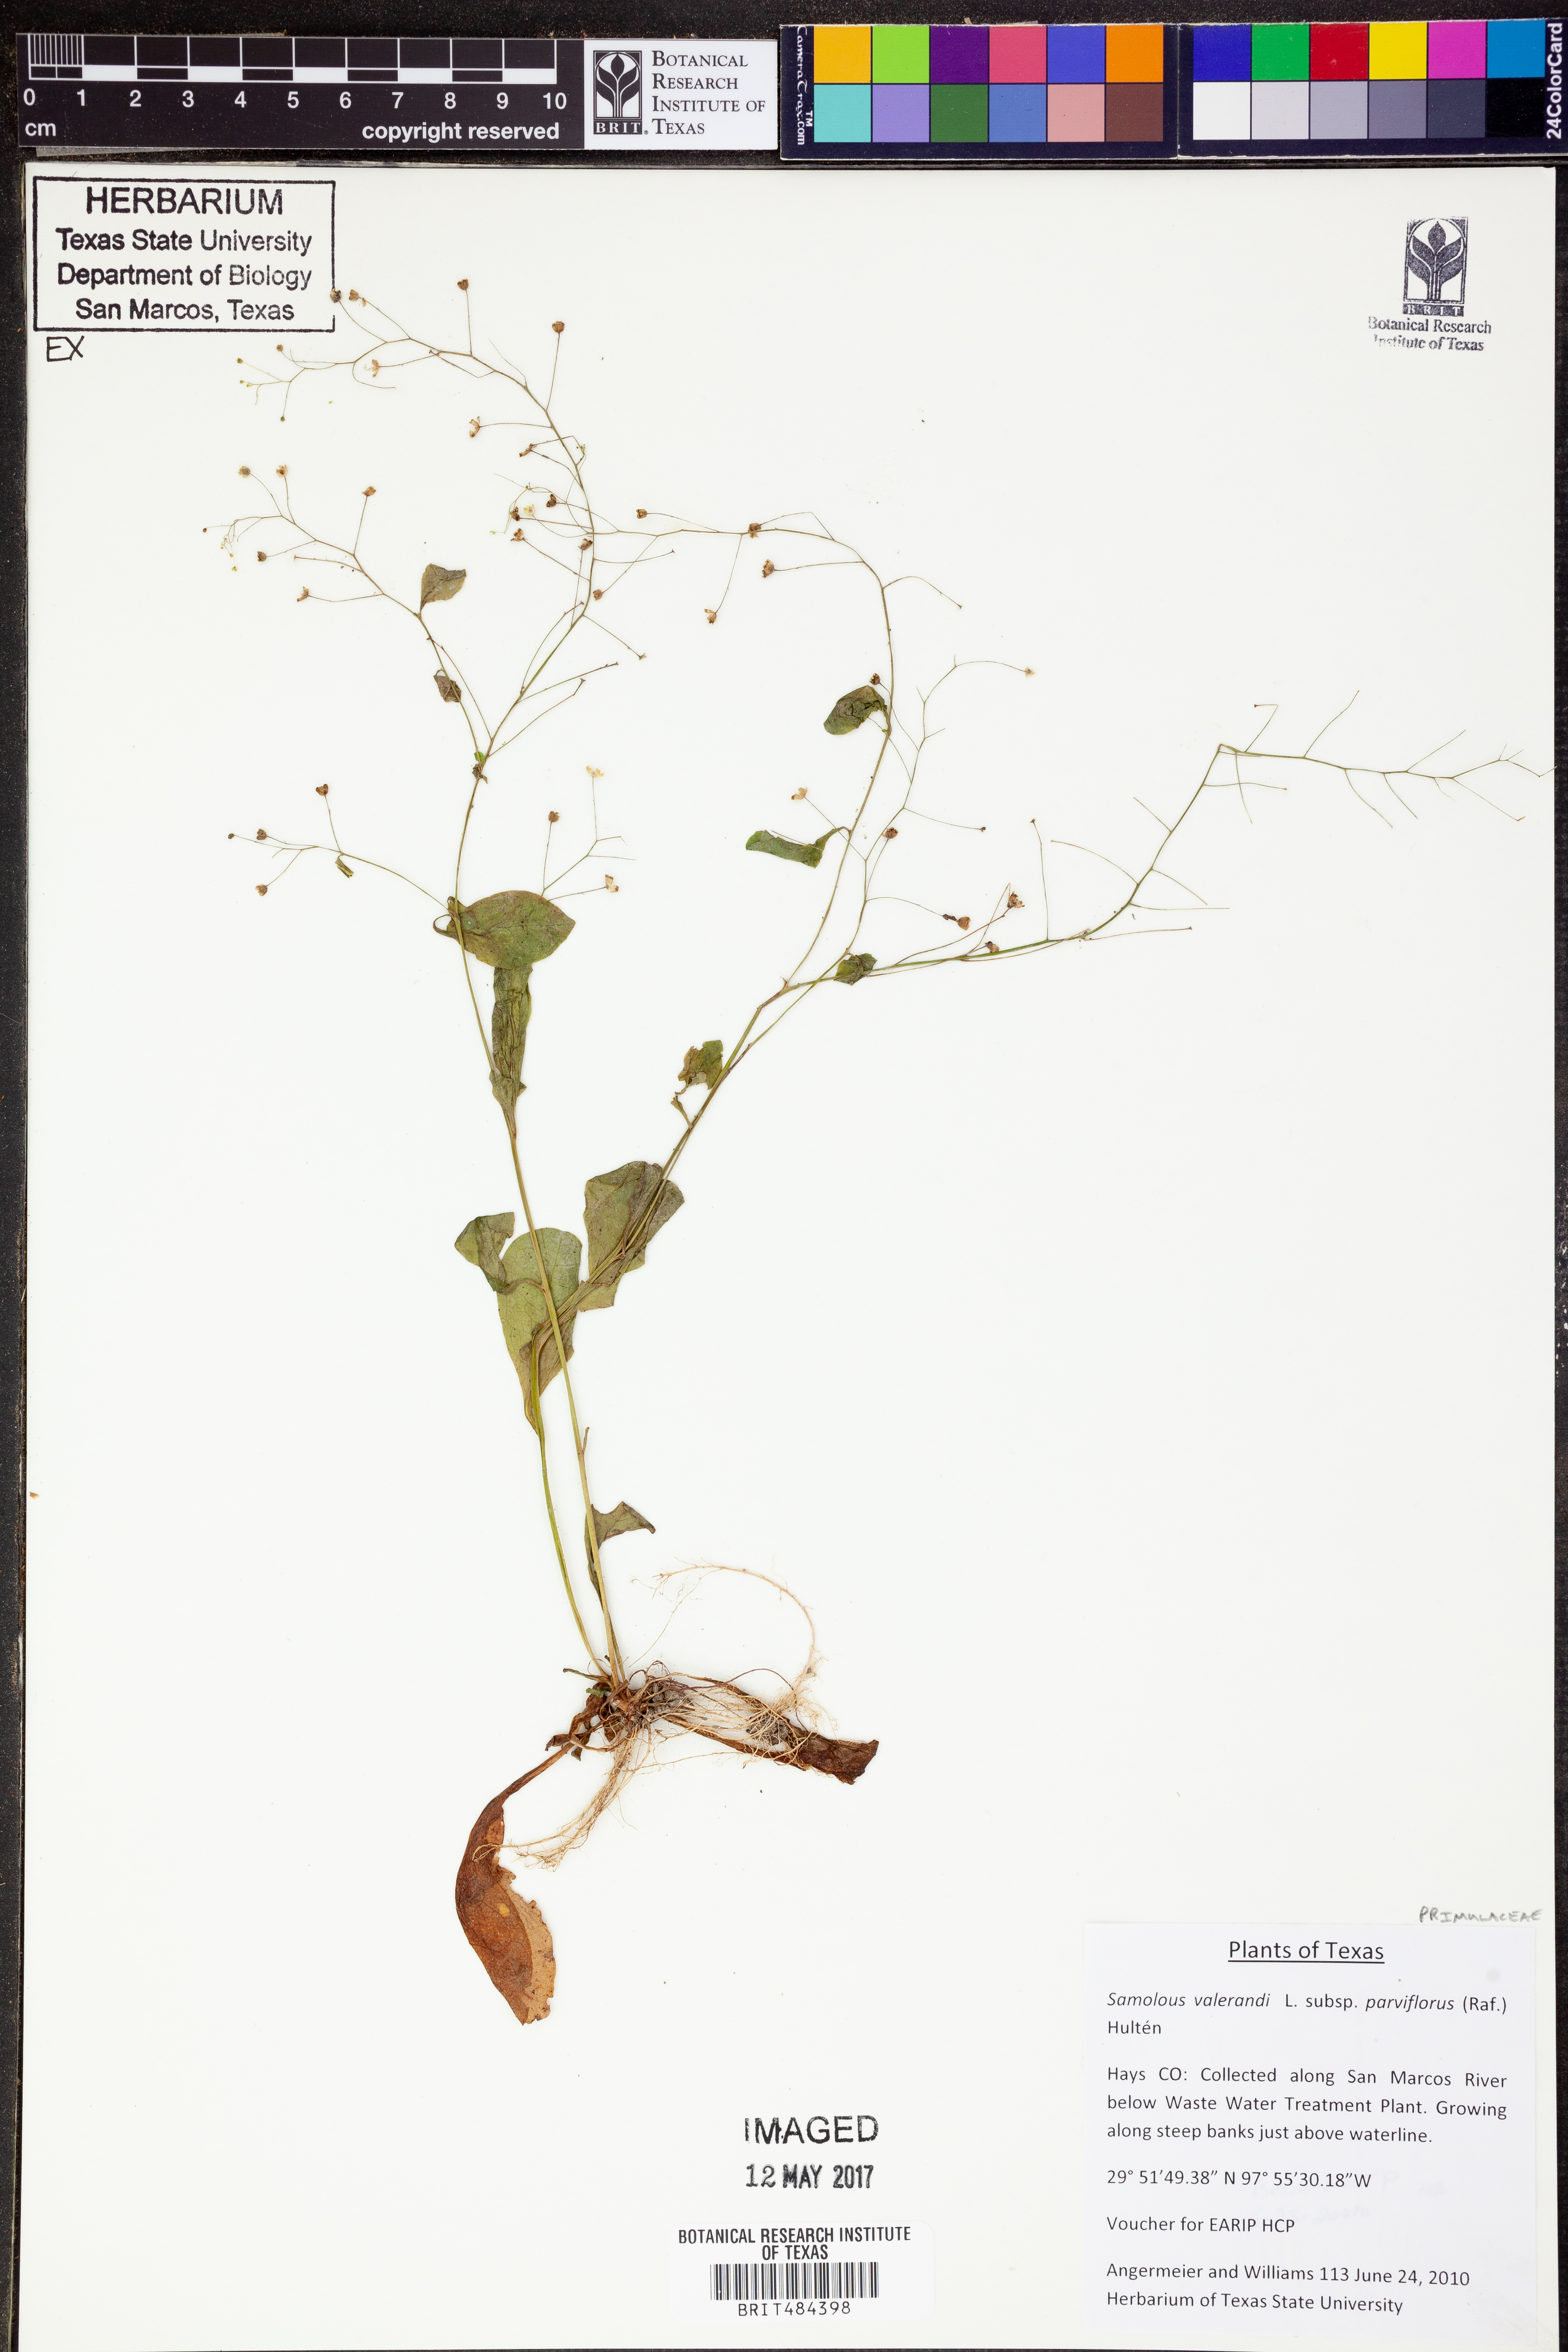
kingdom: Plantae
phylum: Tracheophyta
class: Magnoliopsida
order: Ericales
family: Primulaceae
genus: Samolus
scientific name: Samolus parviflorus
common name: False water pimpernel
